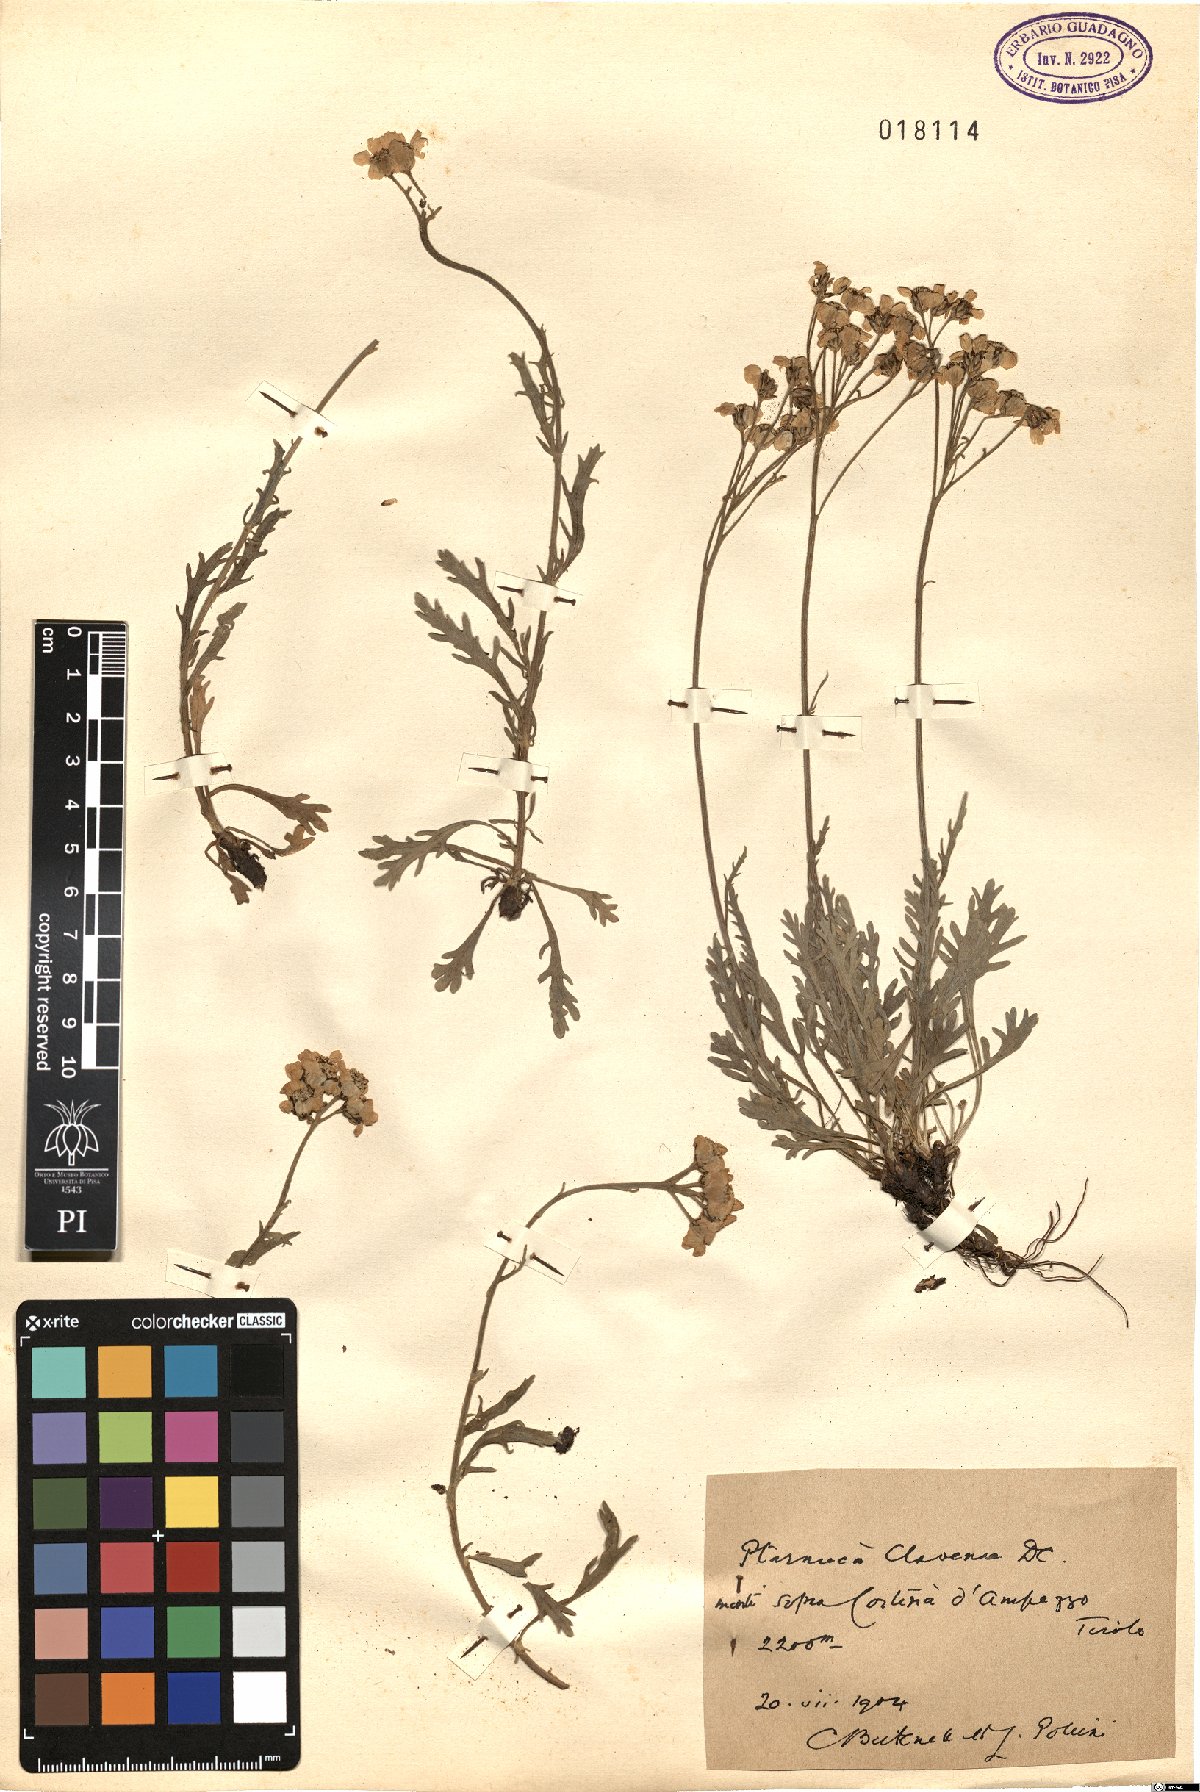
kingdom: Plantae
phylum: Tracheophyta
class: Magnoliopsida
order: Asterales
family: Asteraceae
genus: Achillea
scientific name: Achillea clavennae
